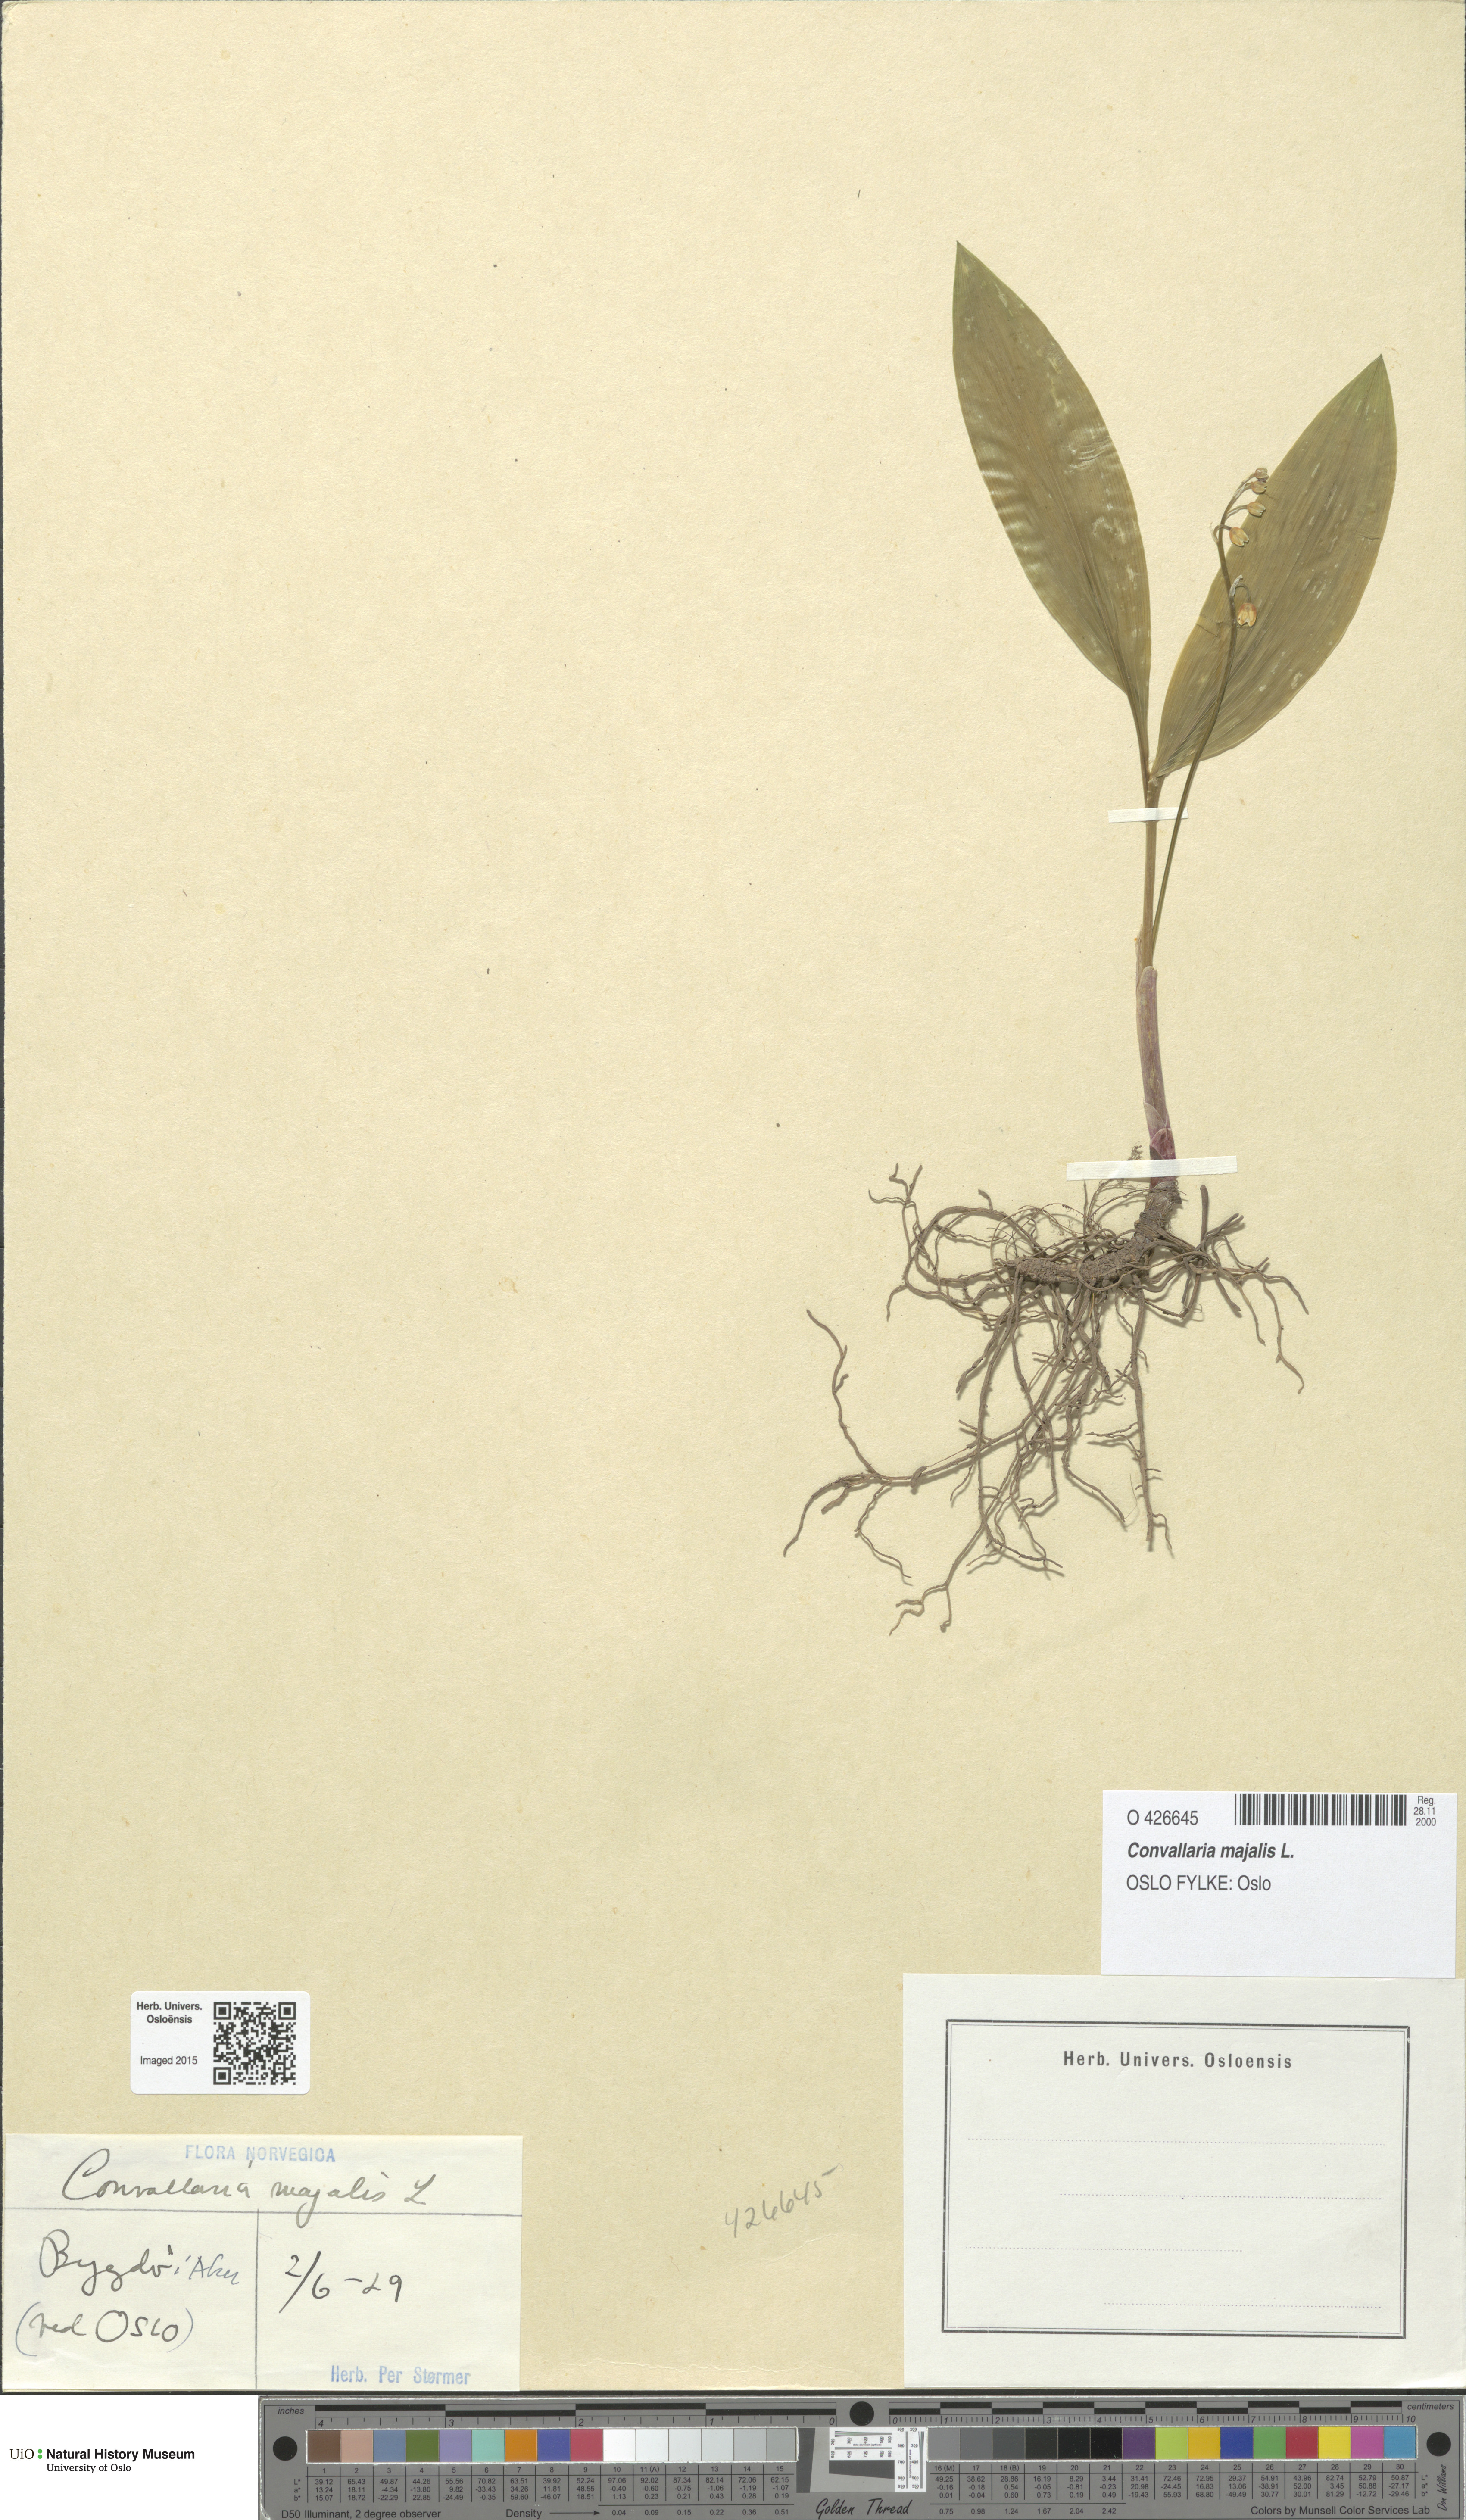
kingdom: Plantae
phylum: Tracheophyta
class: Liliopsida
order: Asparagales
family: Asparagaceae
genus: Convallaria
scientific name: Convallaria majalis
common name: Lily-of-the-valley
